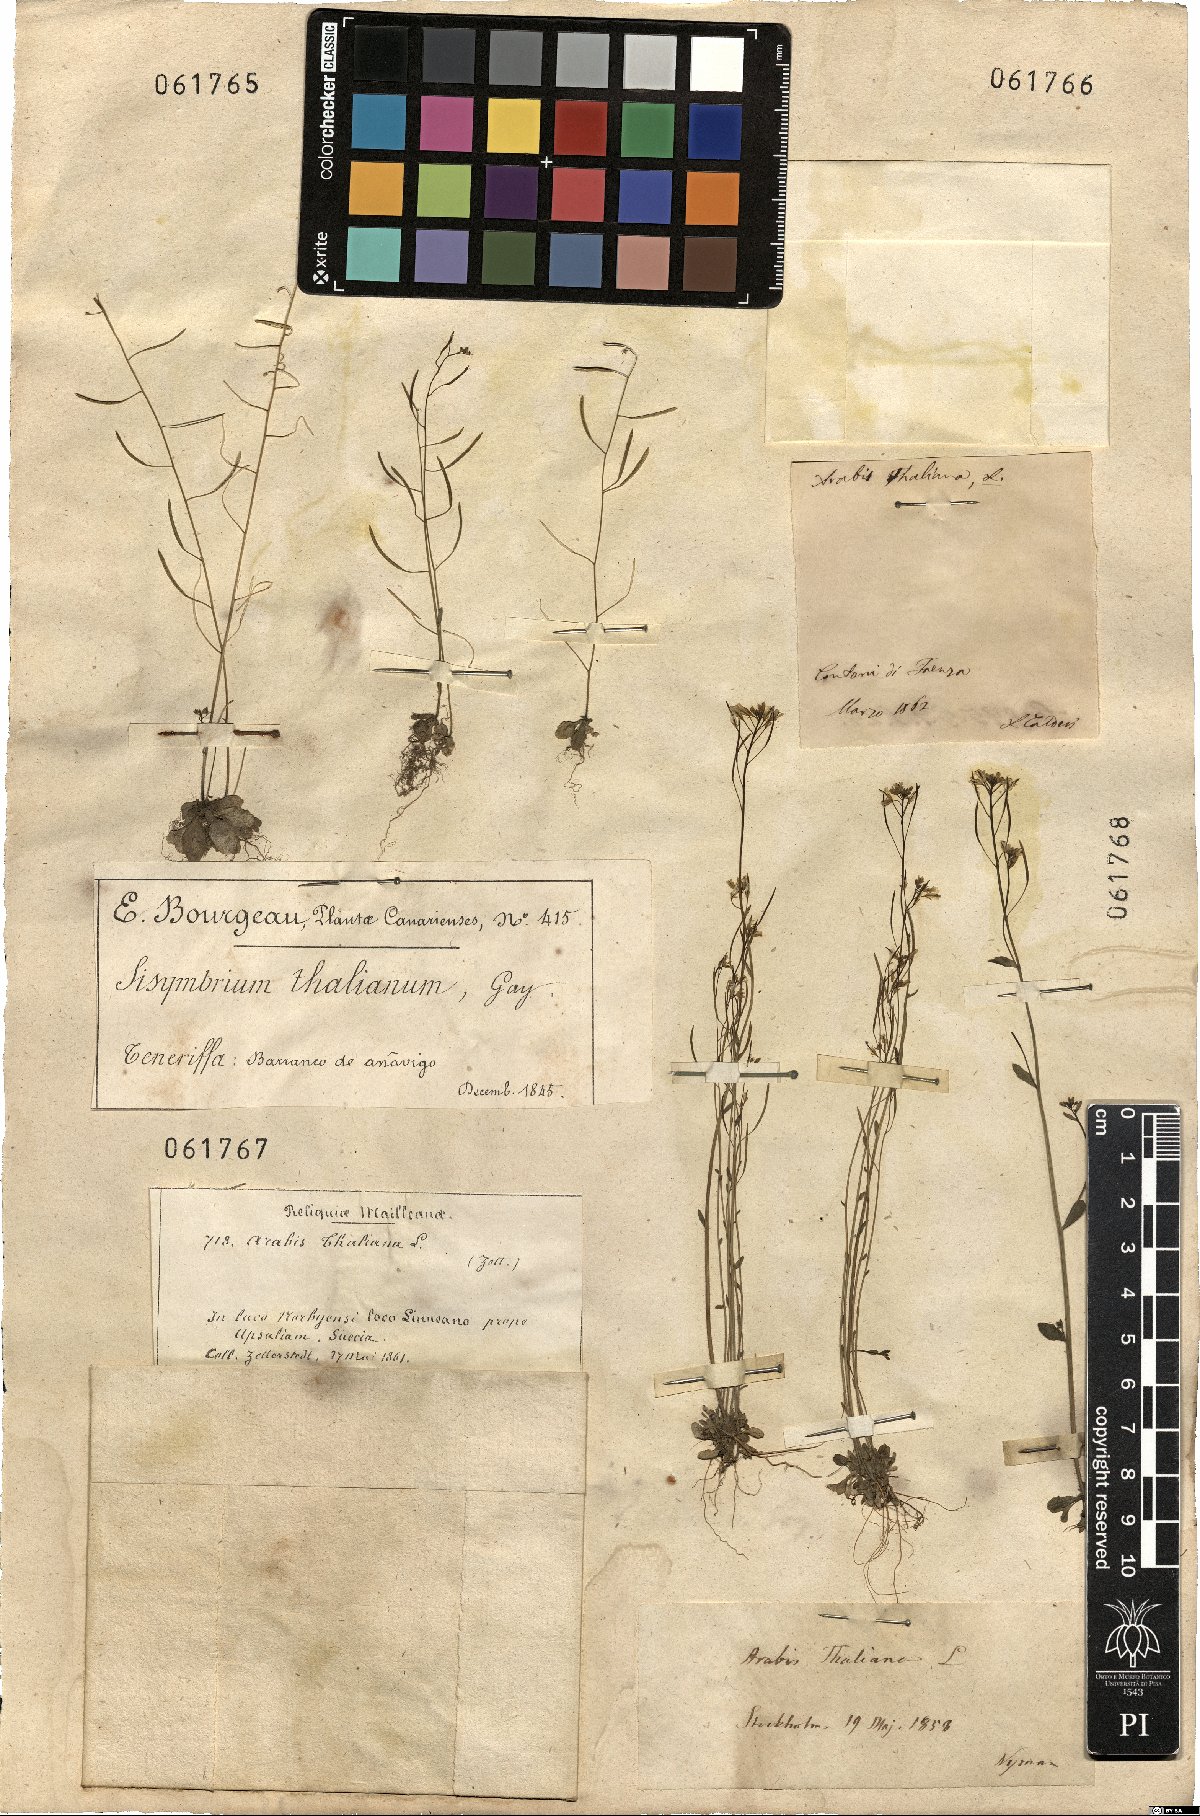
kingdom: Plantae
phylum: Tracheophyta
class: Magnoliopsida
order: Brassicales
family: Brassicaceae
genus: Arabidopsis
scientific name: Arabidopsis thaliana
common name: Thale cress
